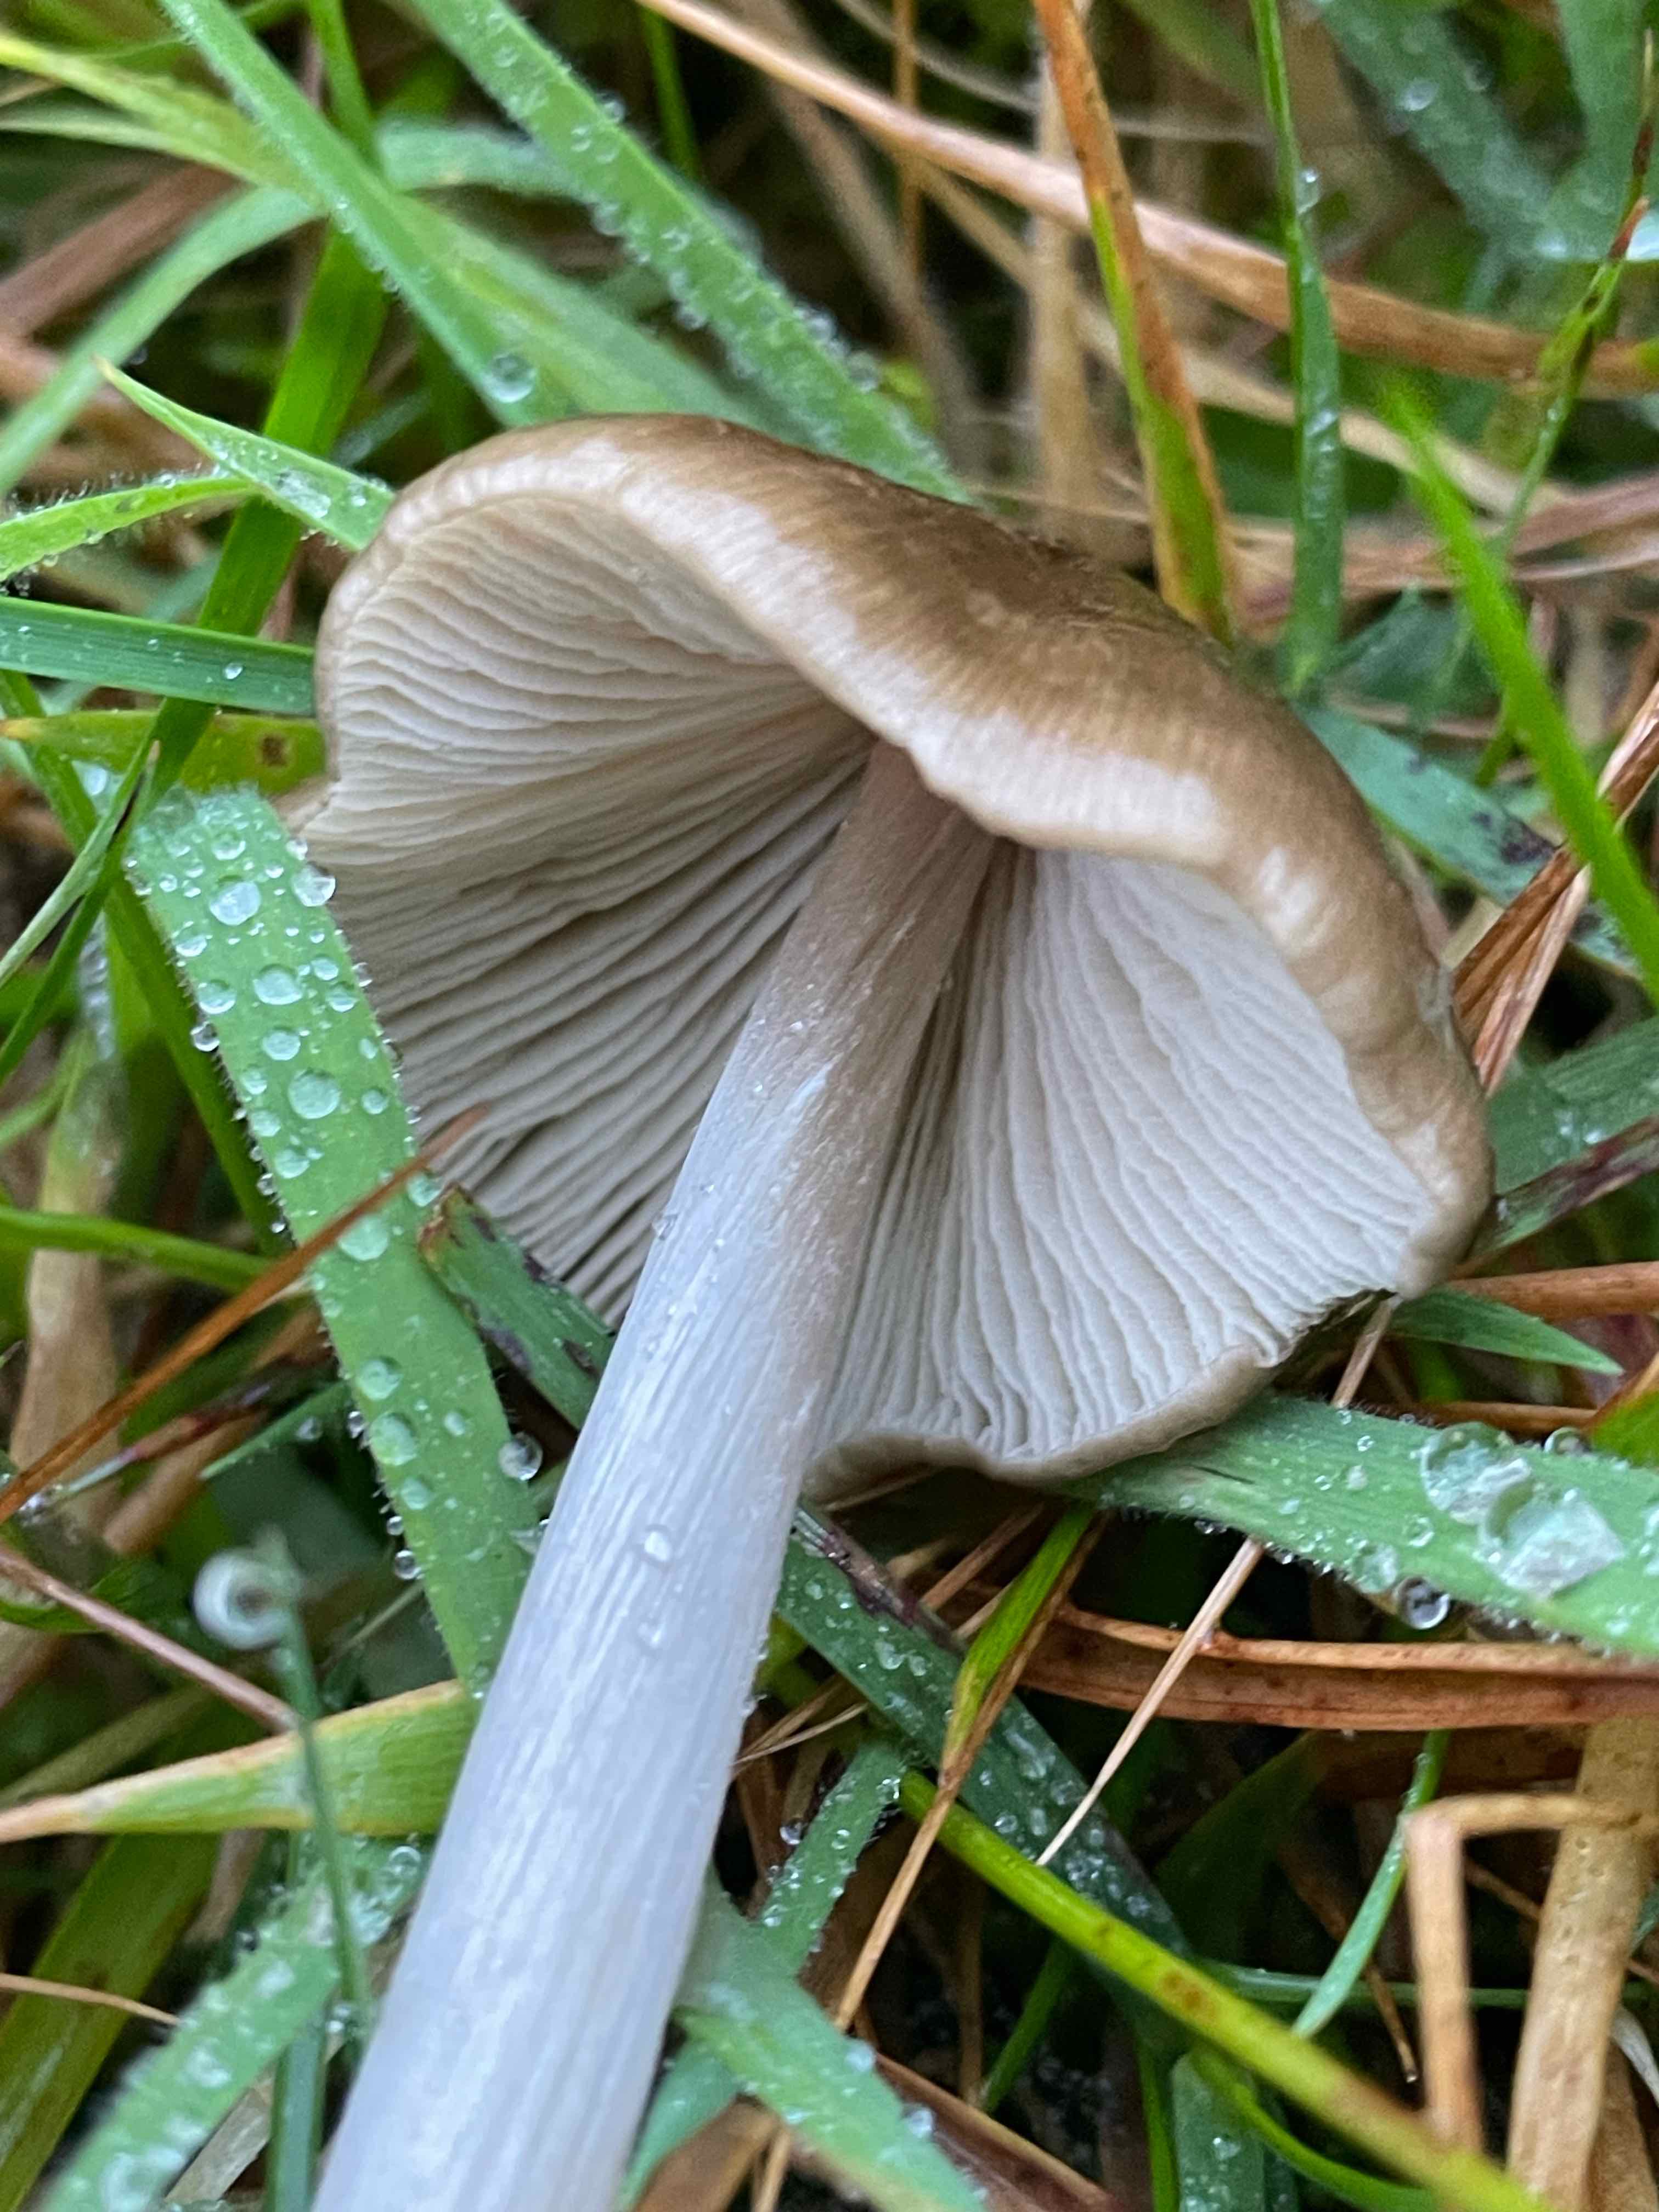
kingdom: Fungi
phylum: Basidiomycota
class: Agaricomycetes
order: Agaricales
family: Entolomataceae
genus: Entoloma
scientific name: Entoloma
